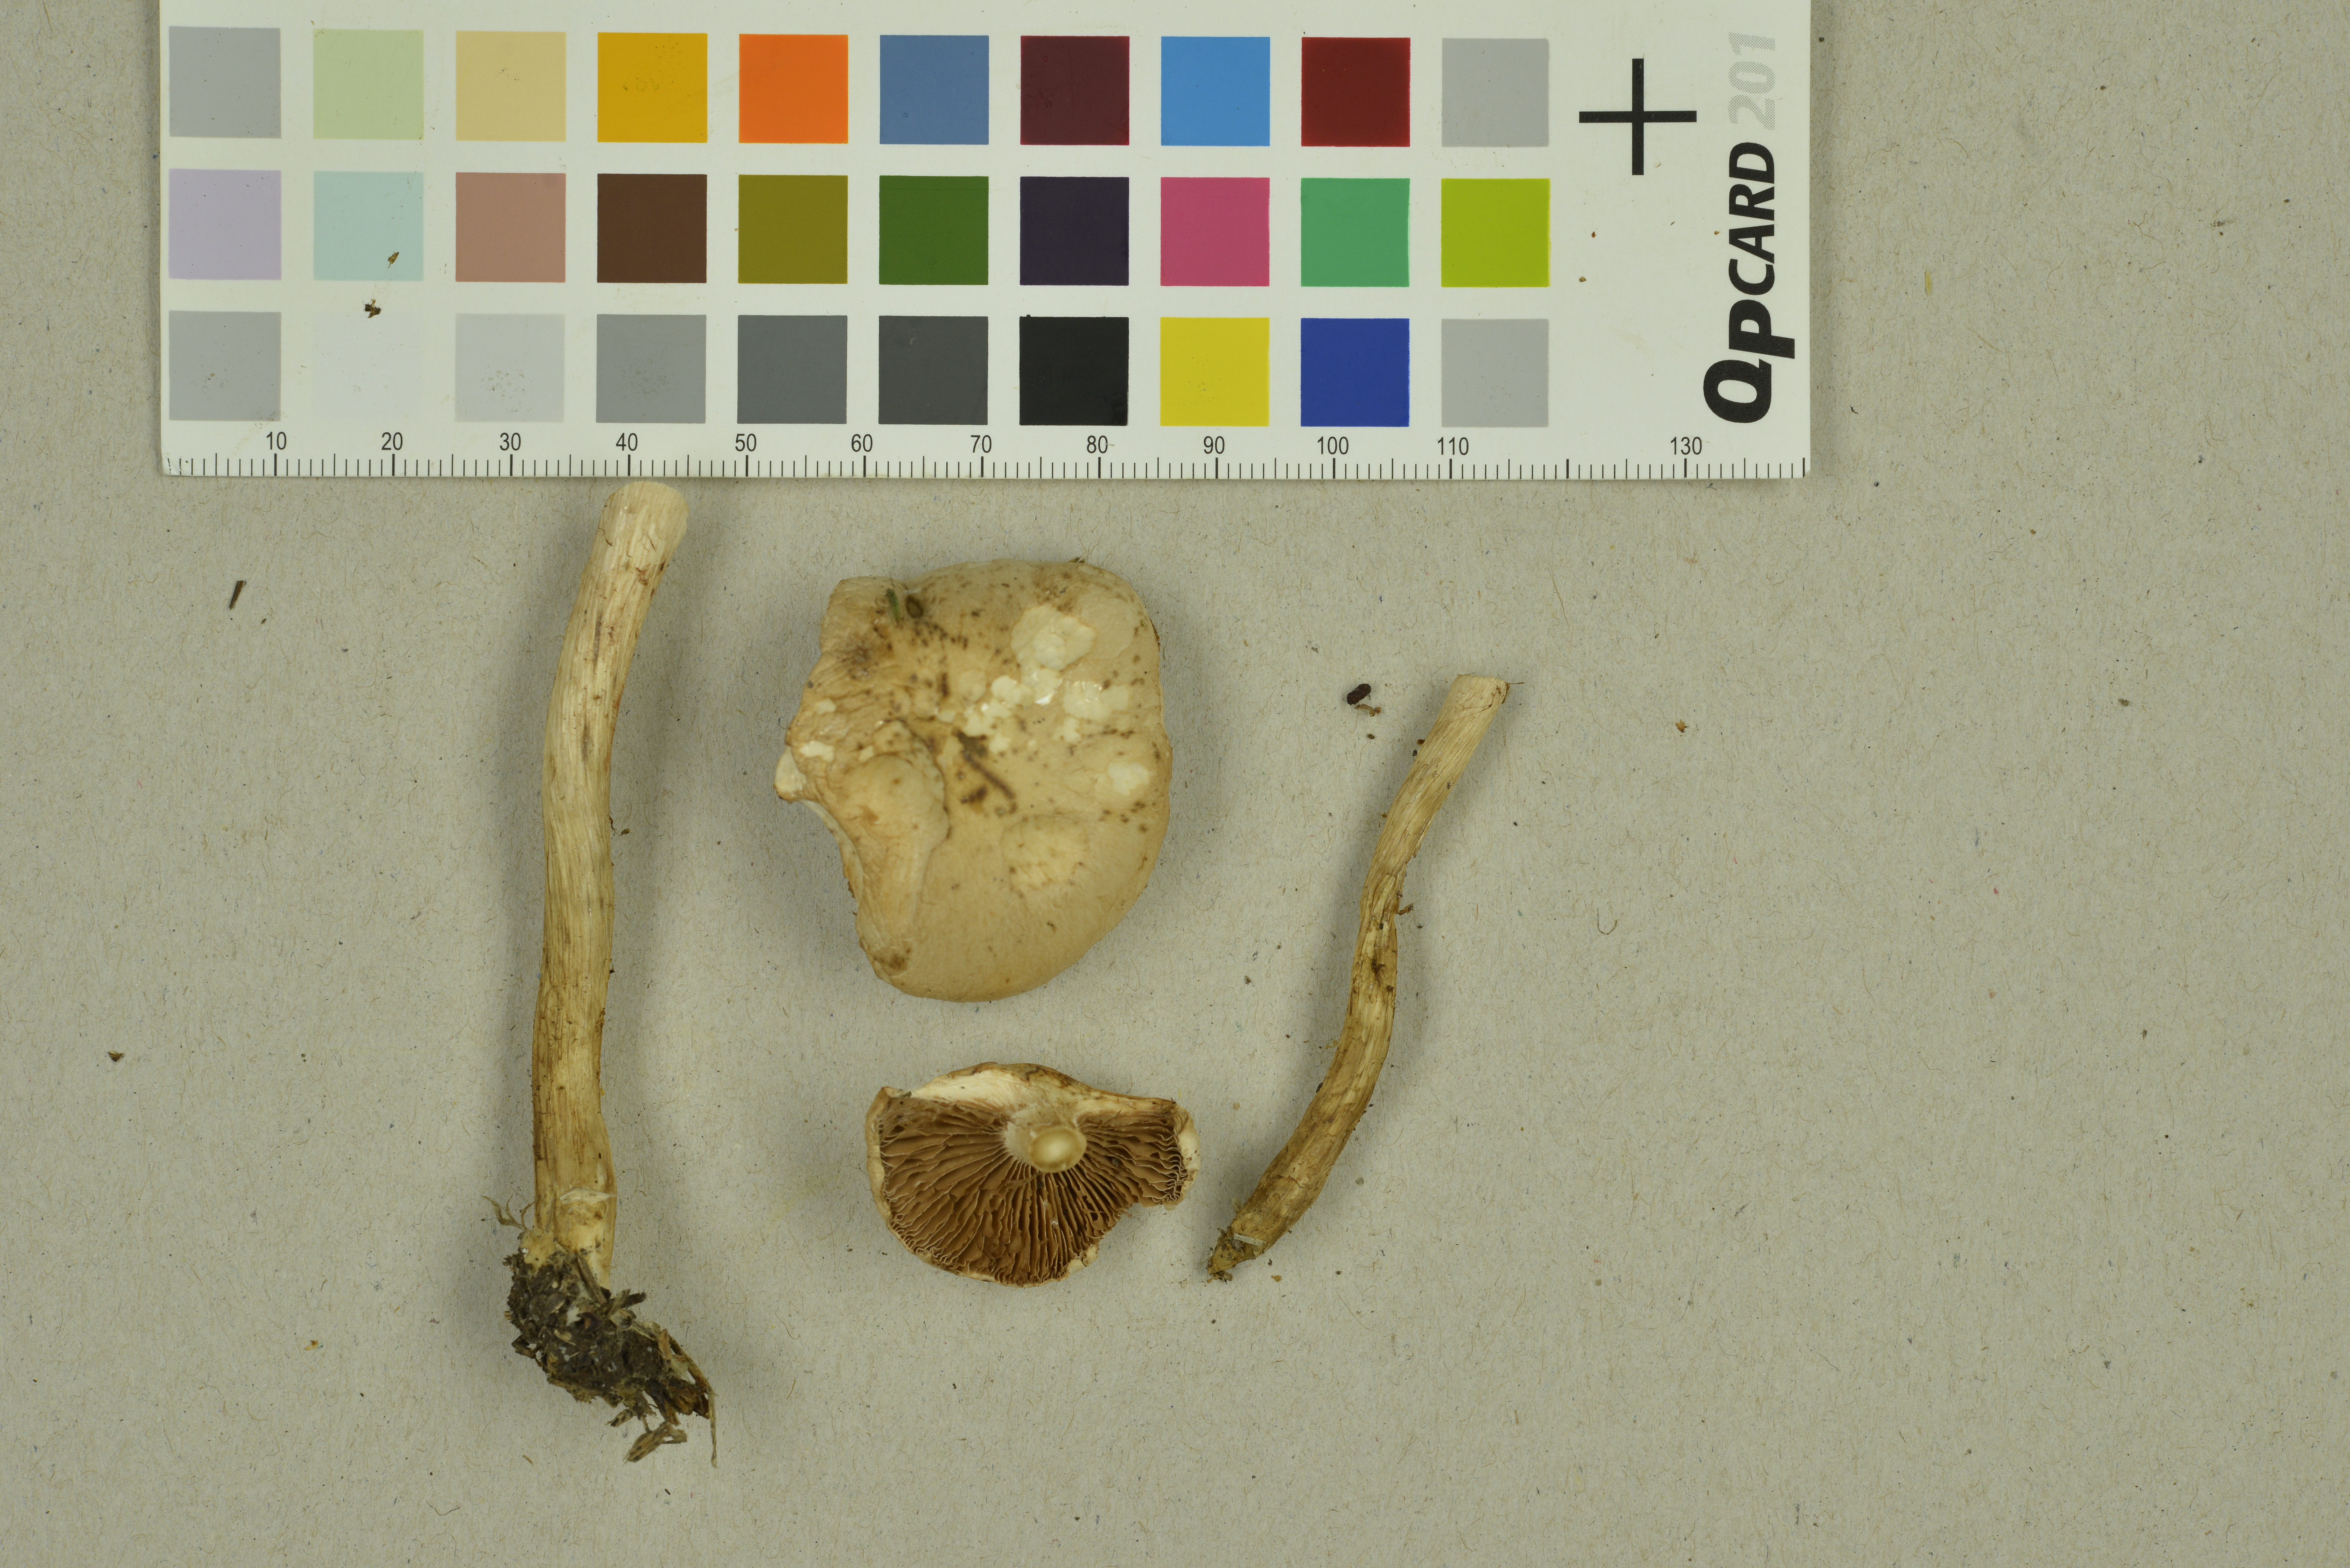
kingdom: Fungi
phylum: Basidiomycota
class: Agaricomycetes
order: Agaricales
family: Hymenogastraceae
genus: Hebeloma
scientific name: Hebeloma circinans
